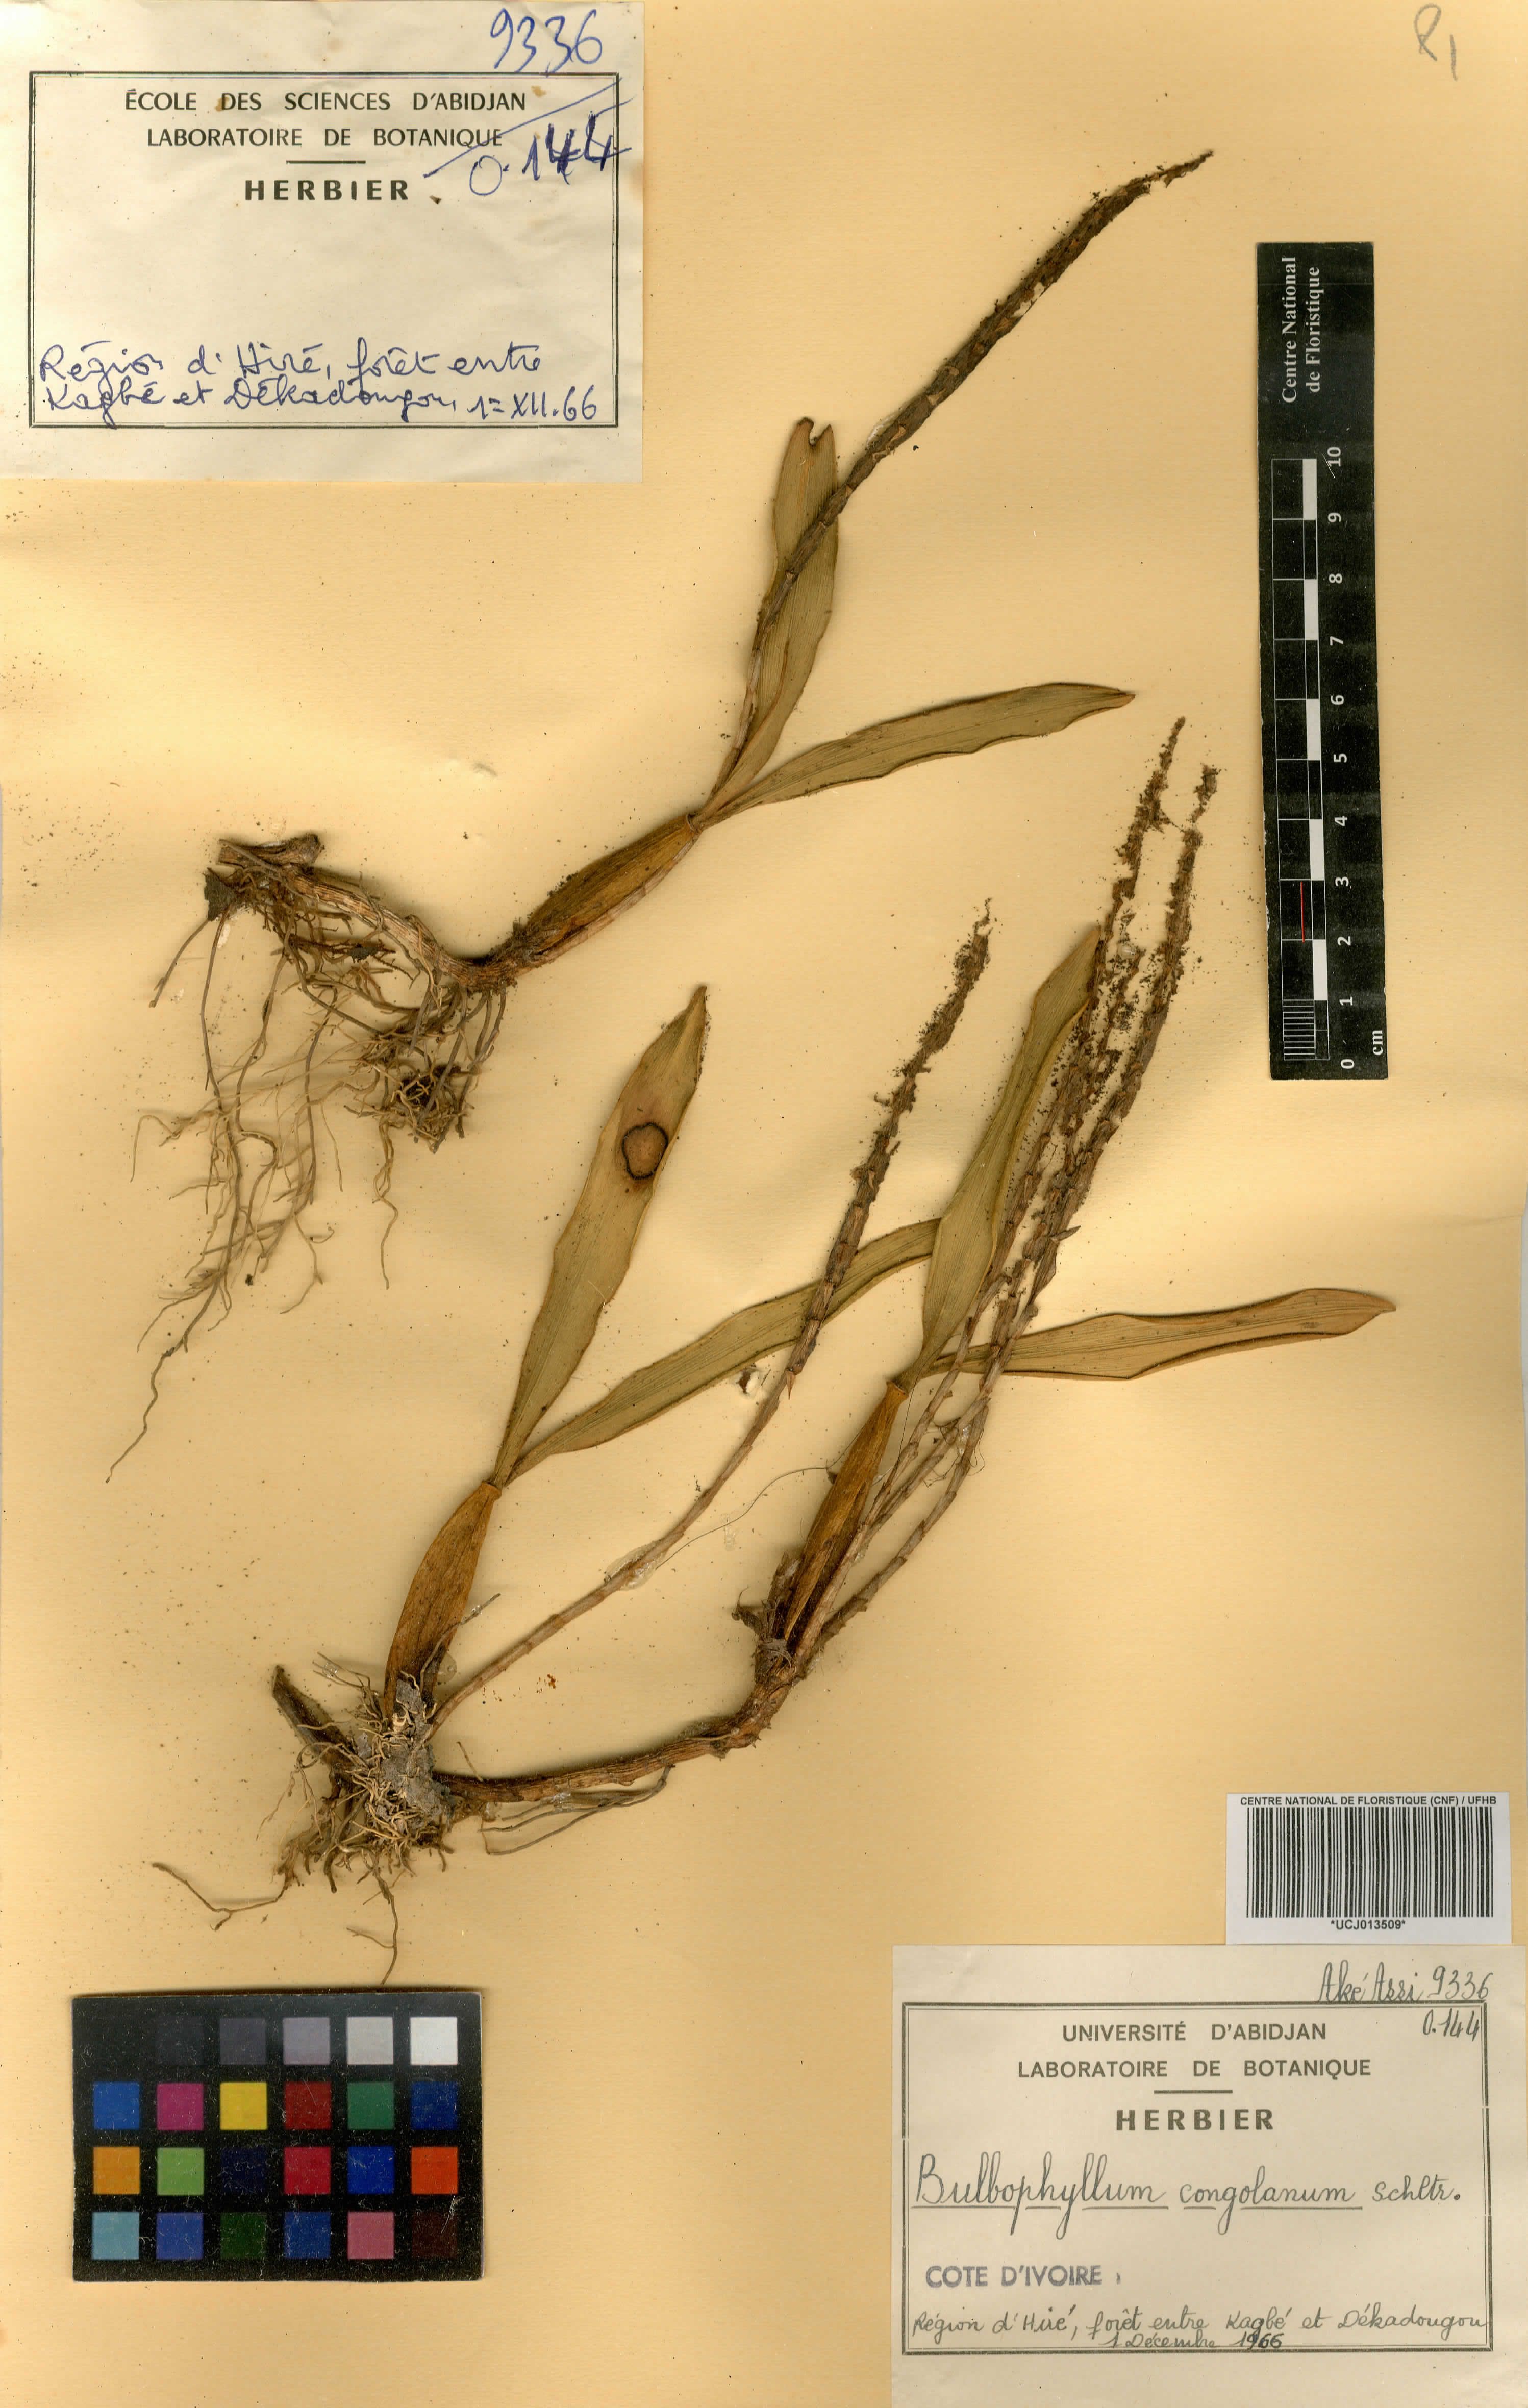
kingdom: Plantae
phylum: Tracheophyta
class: Liliopsida
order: Asparagales
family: Orchidaceae
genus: Bulbophyllum
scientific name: Bulbophyllum scaberulum
